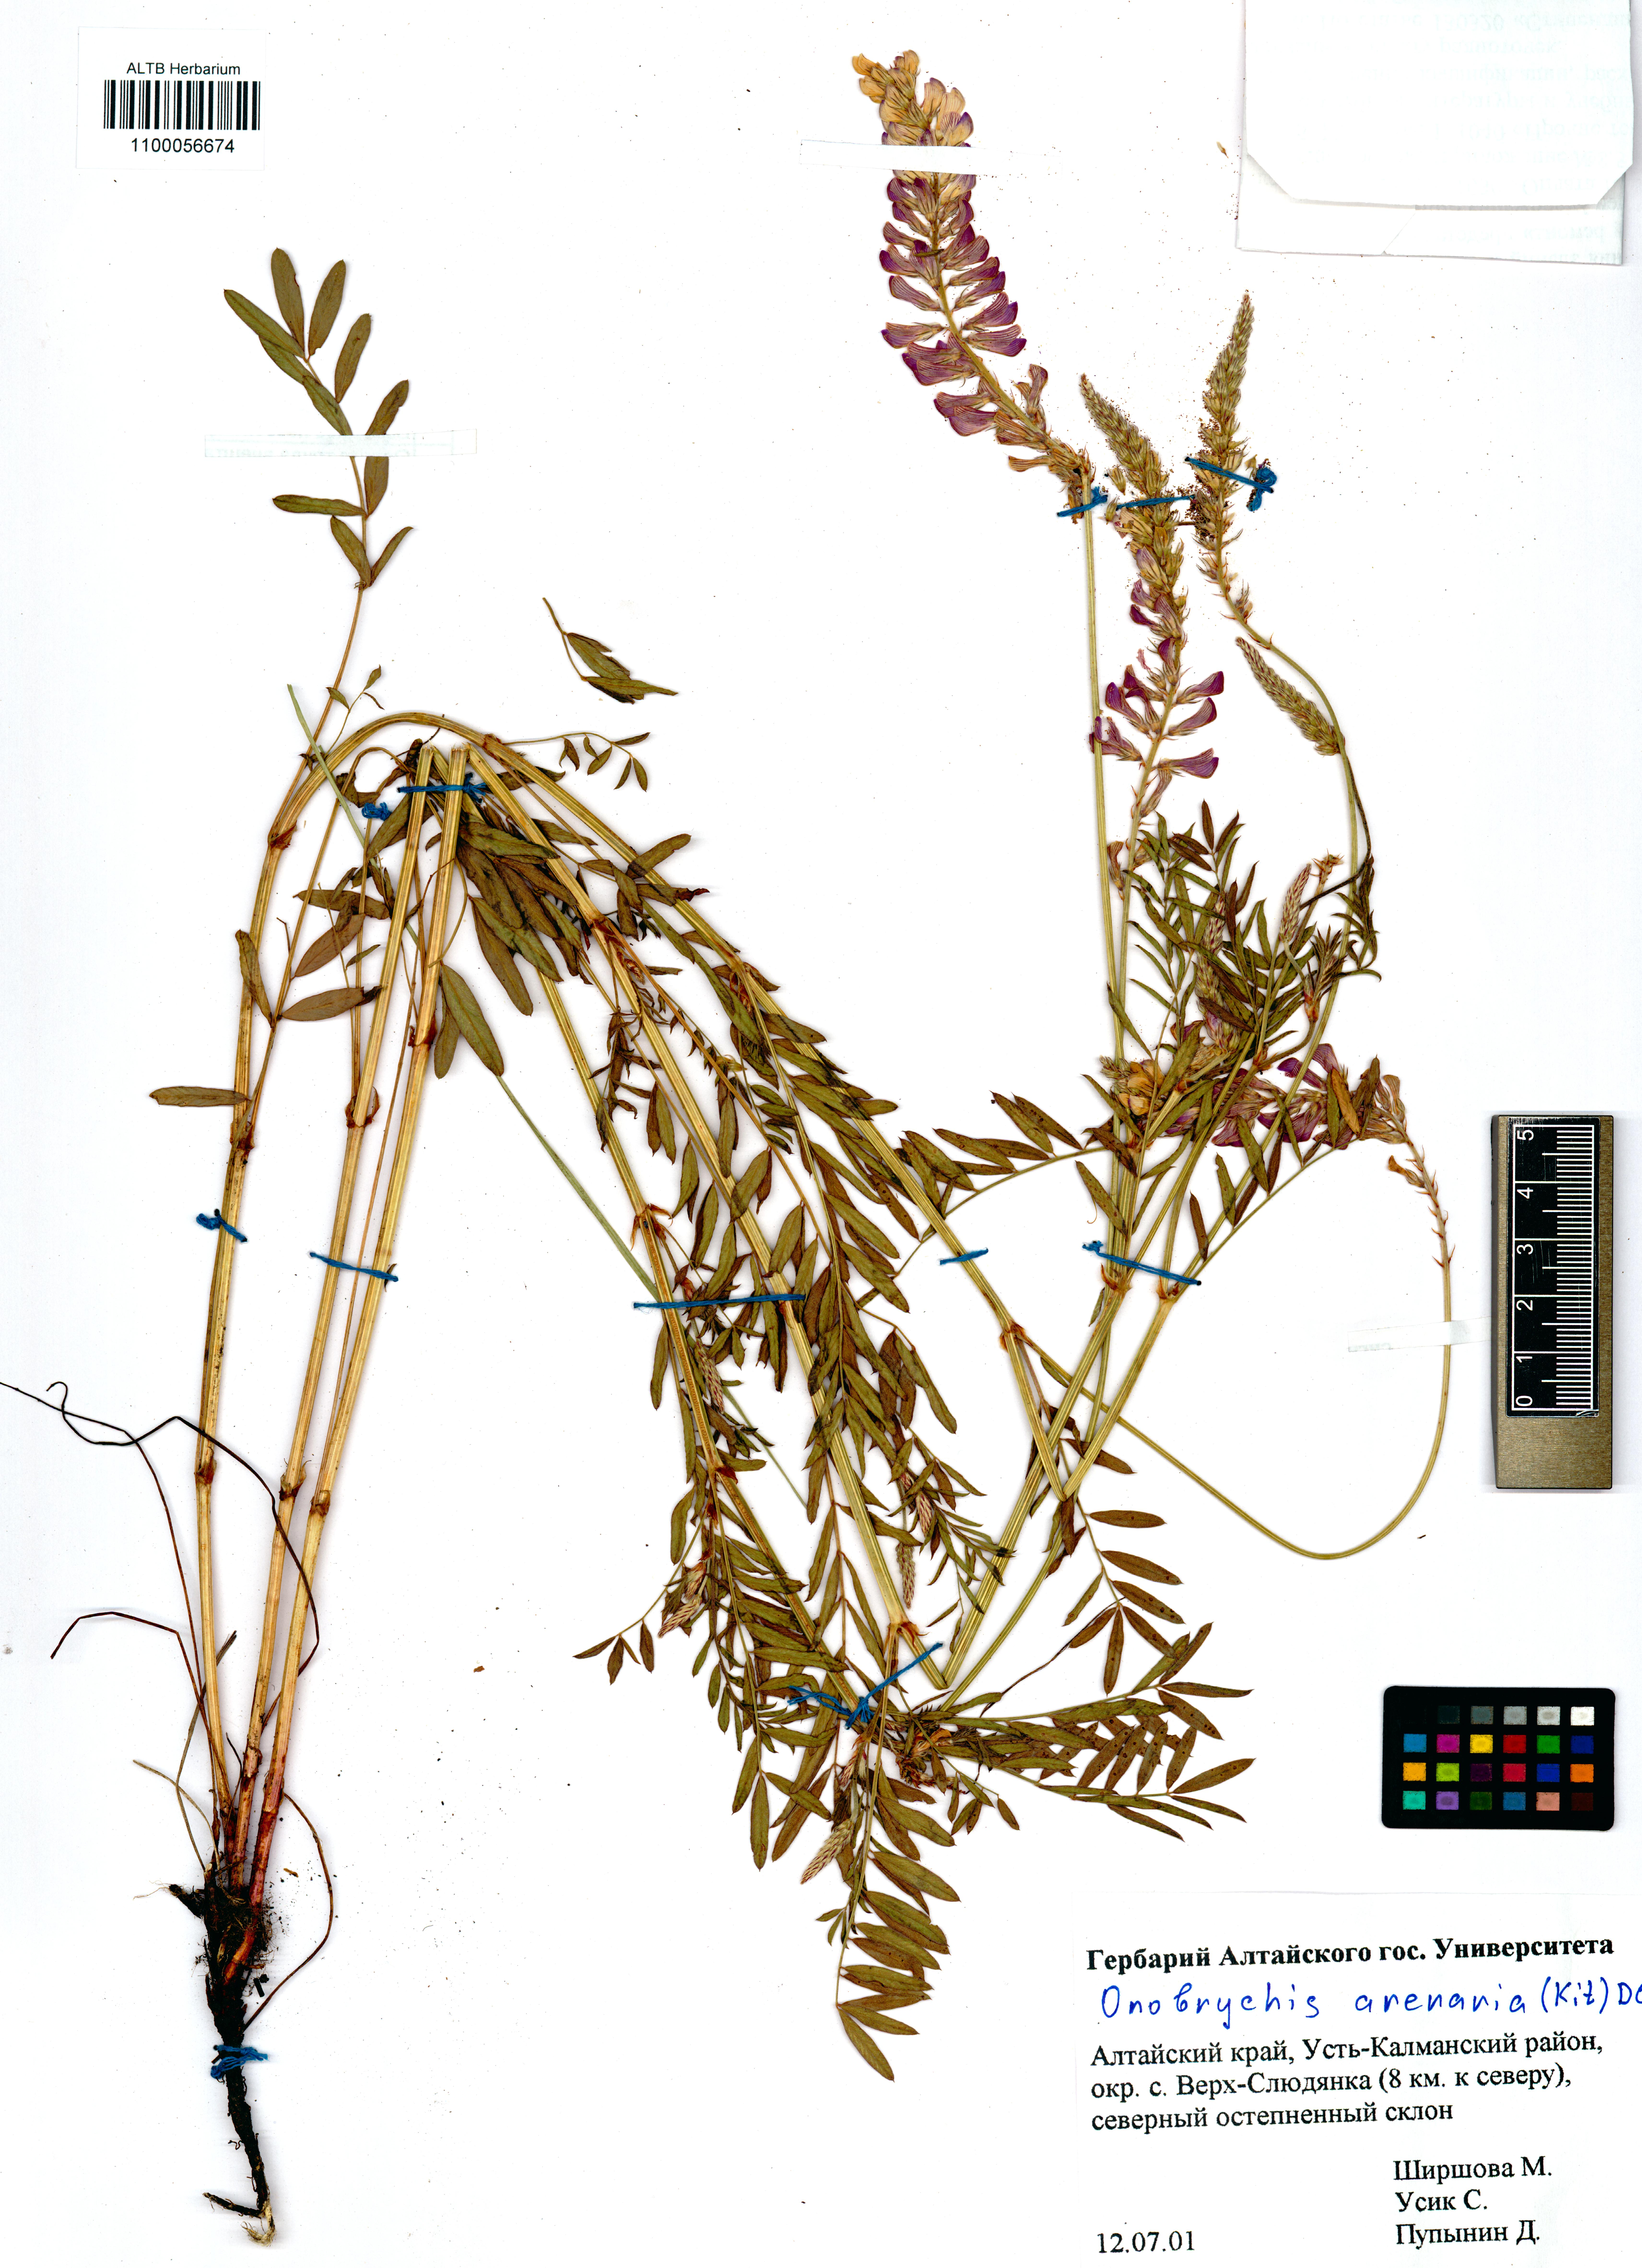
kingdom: Plantae
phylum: Tracheophyta
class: Magnoliopsida
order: Fabales
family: Fabaceae
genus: Onobrychis
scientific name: Onobrychis arenaria
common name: Sand esparcet
